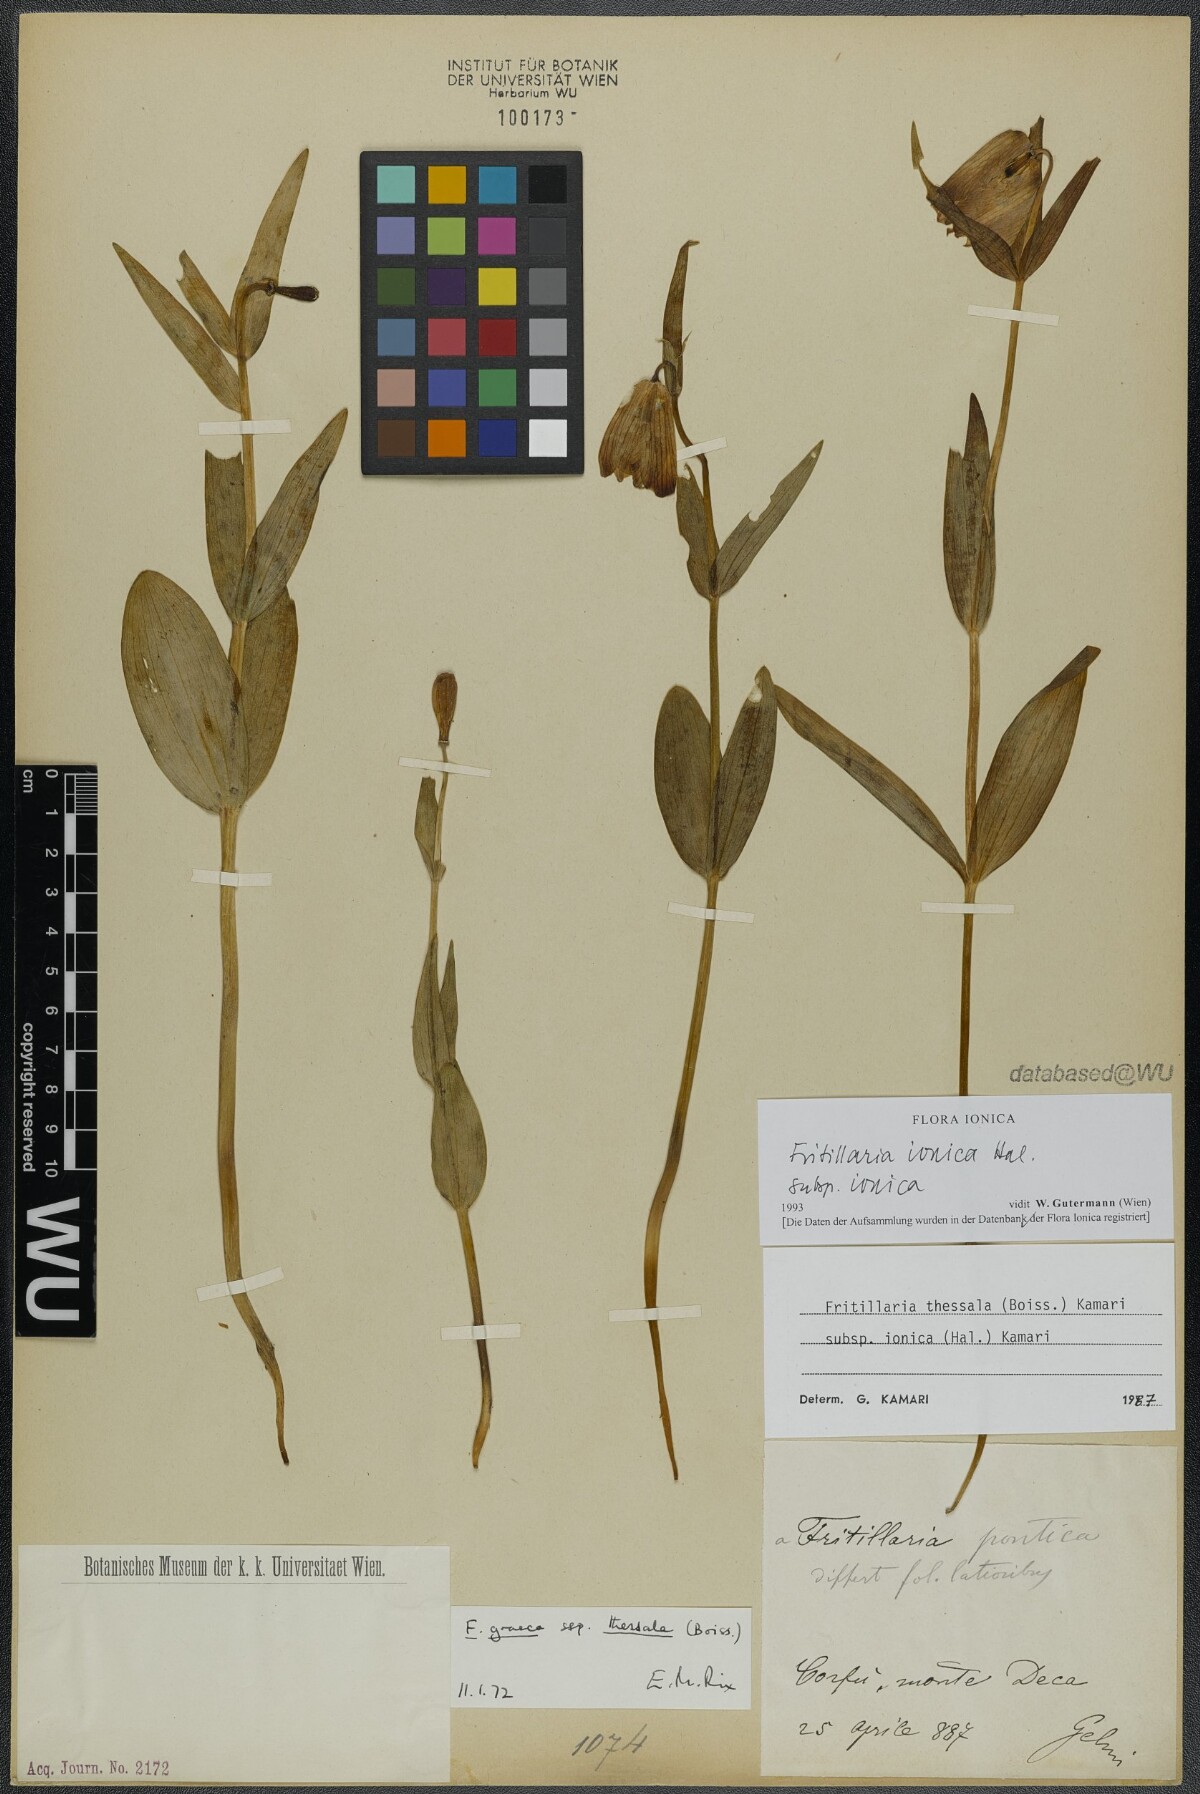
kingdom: Plantae
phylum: Tracheophyta
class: Liliopsida
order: Liliales
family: Liliaceae
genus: Fritillaria
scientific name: Fritillaria graeca
